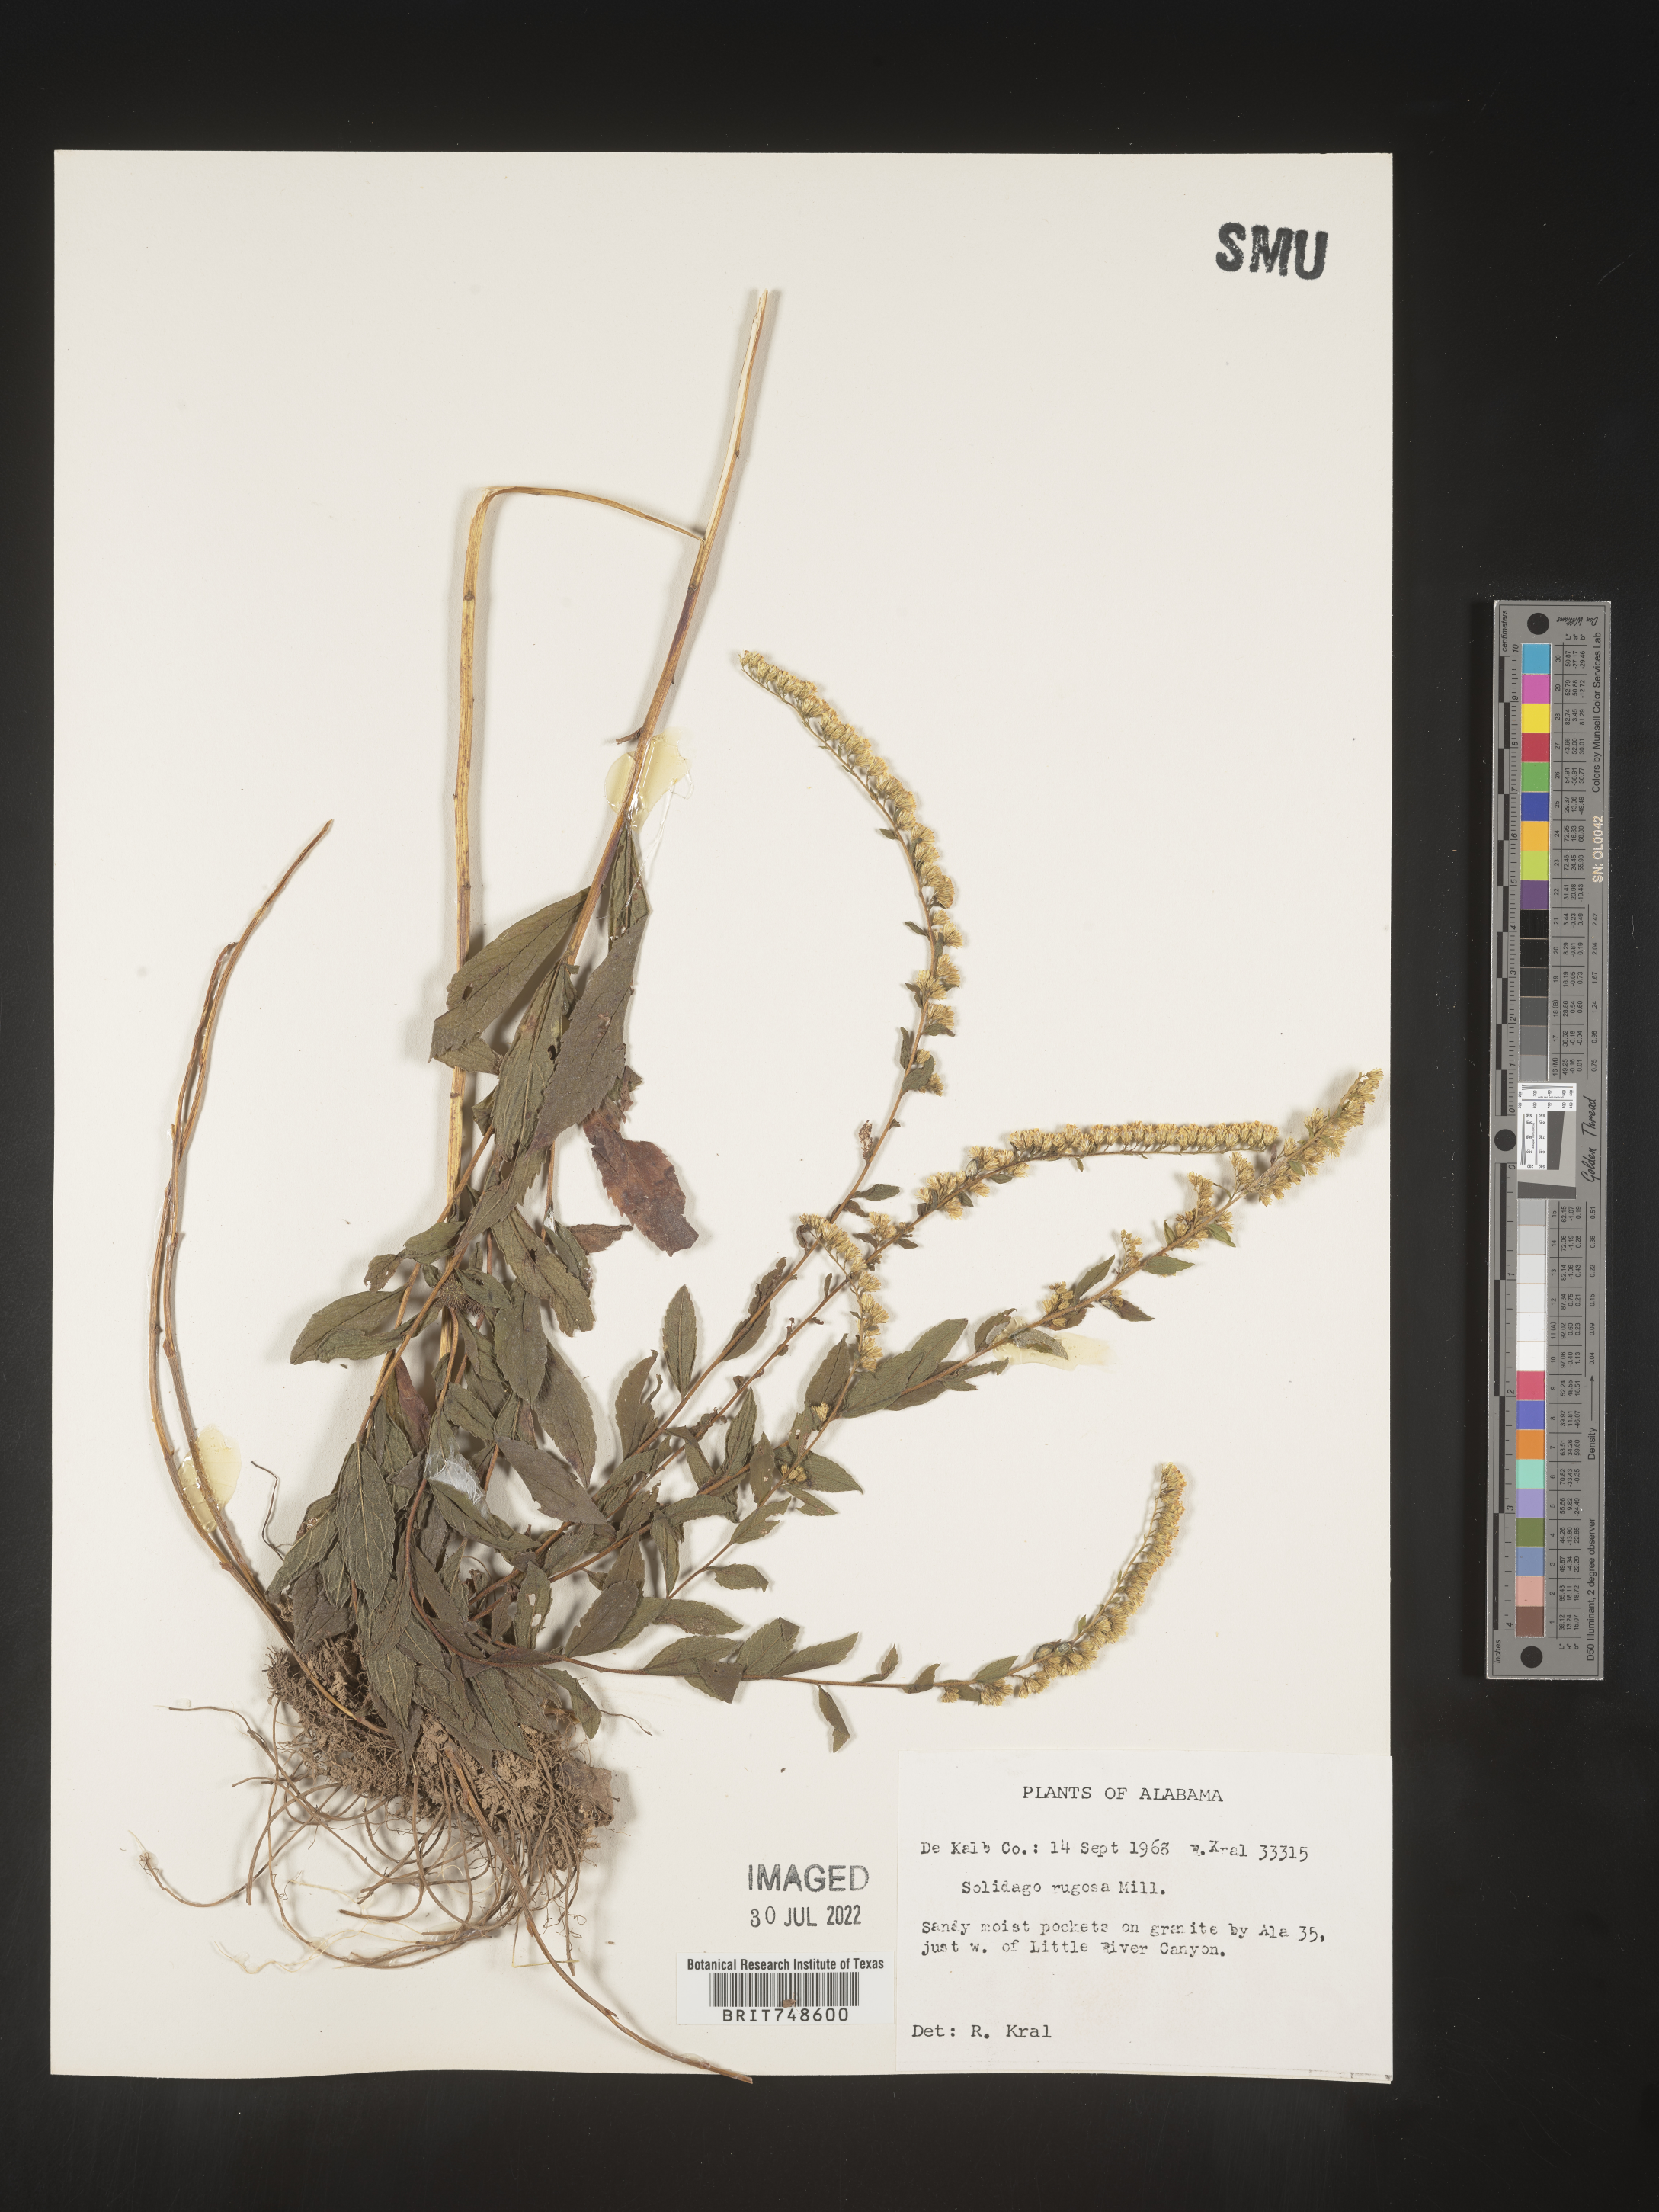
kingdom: Plantae
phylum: Tracheophyta
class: Magnoliopsida
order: Asterales
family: Asteraceae
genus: Solidago
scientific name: Solidago rugosa
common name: Rough-stemmed goldenrod
